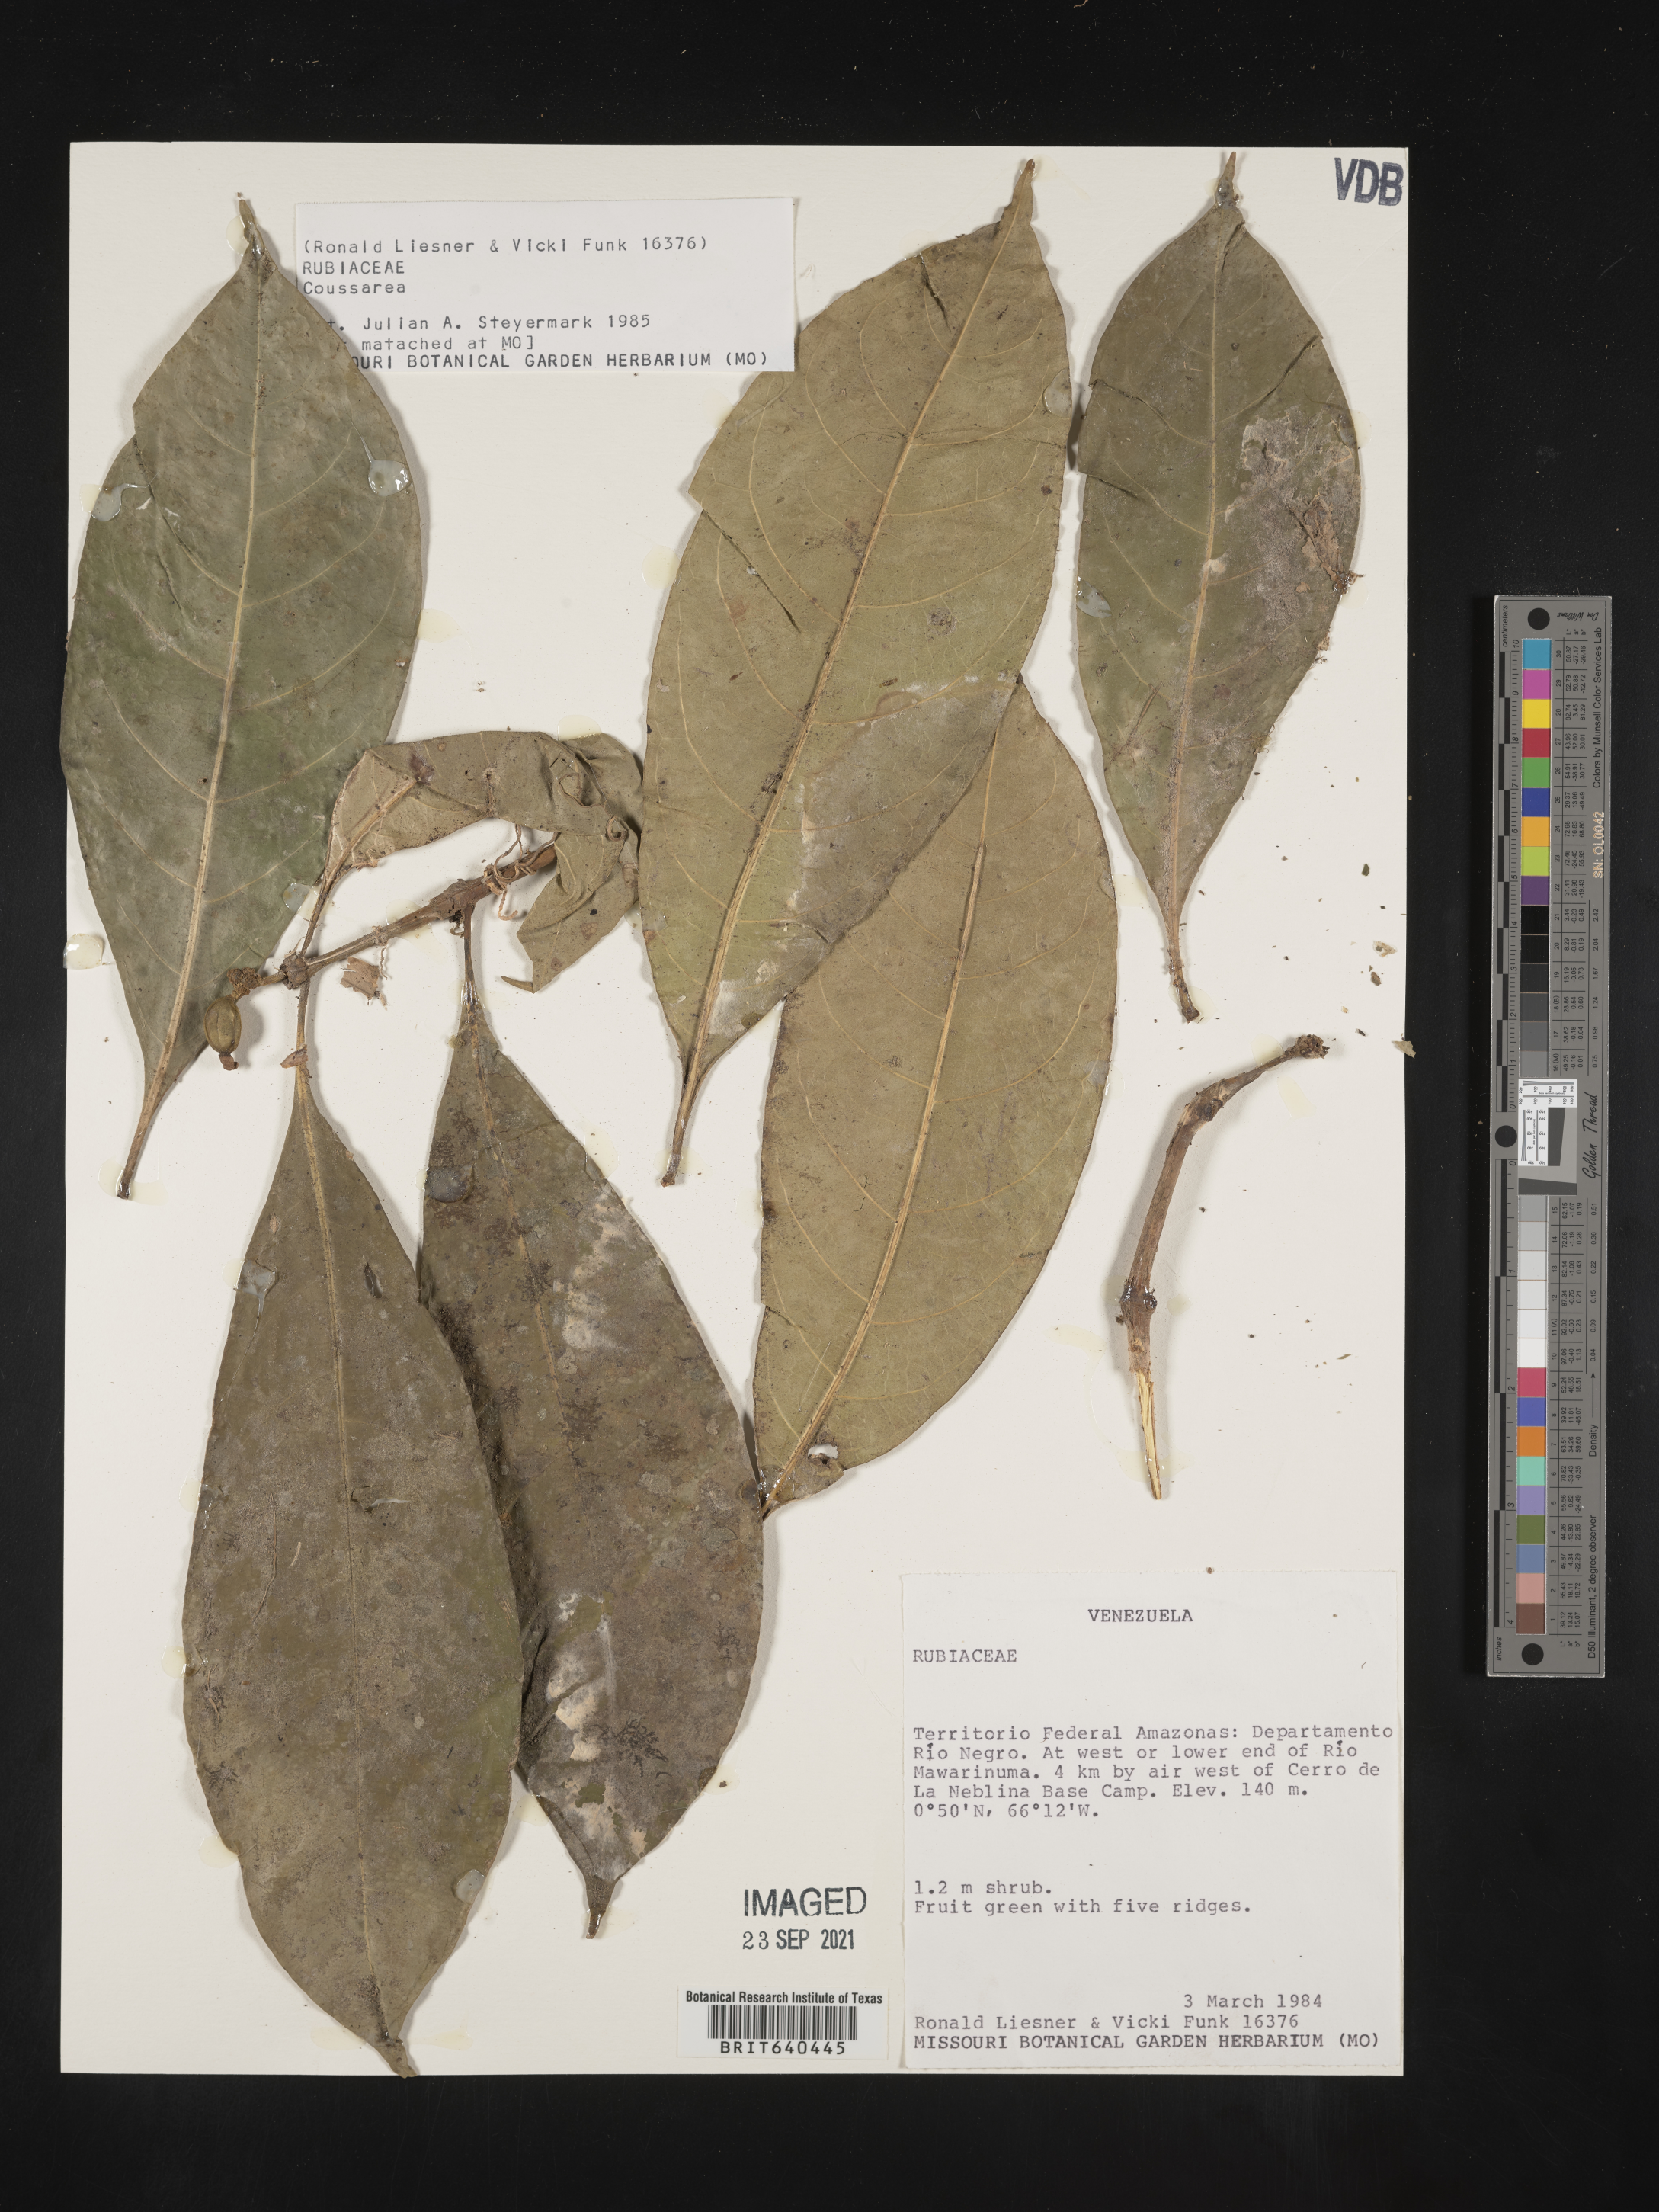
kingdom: Plantae
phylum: Tracheophyta
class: Magnoliopsida
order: Gentianales
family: Rubiaceae
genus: Coussarea
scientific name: Coussarea
